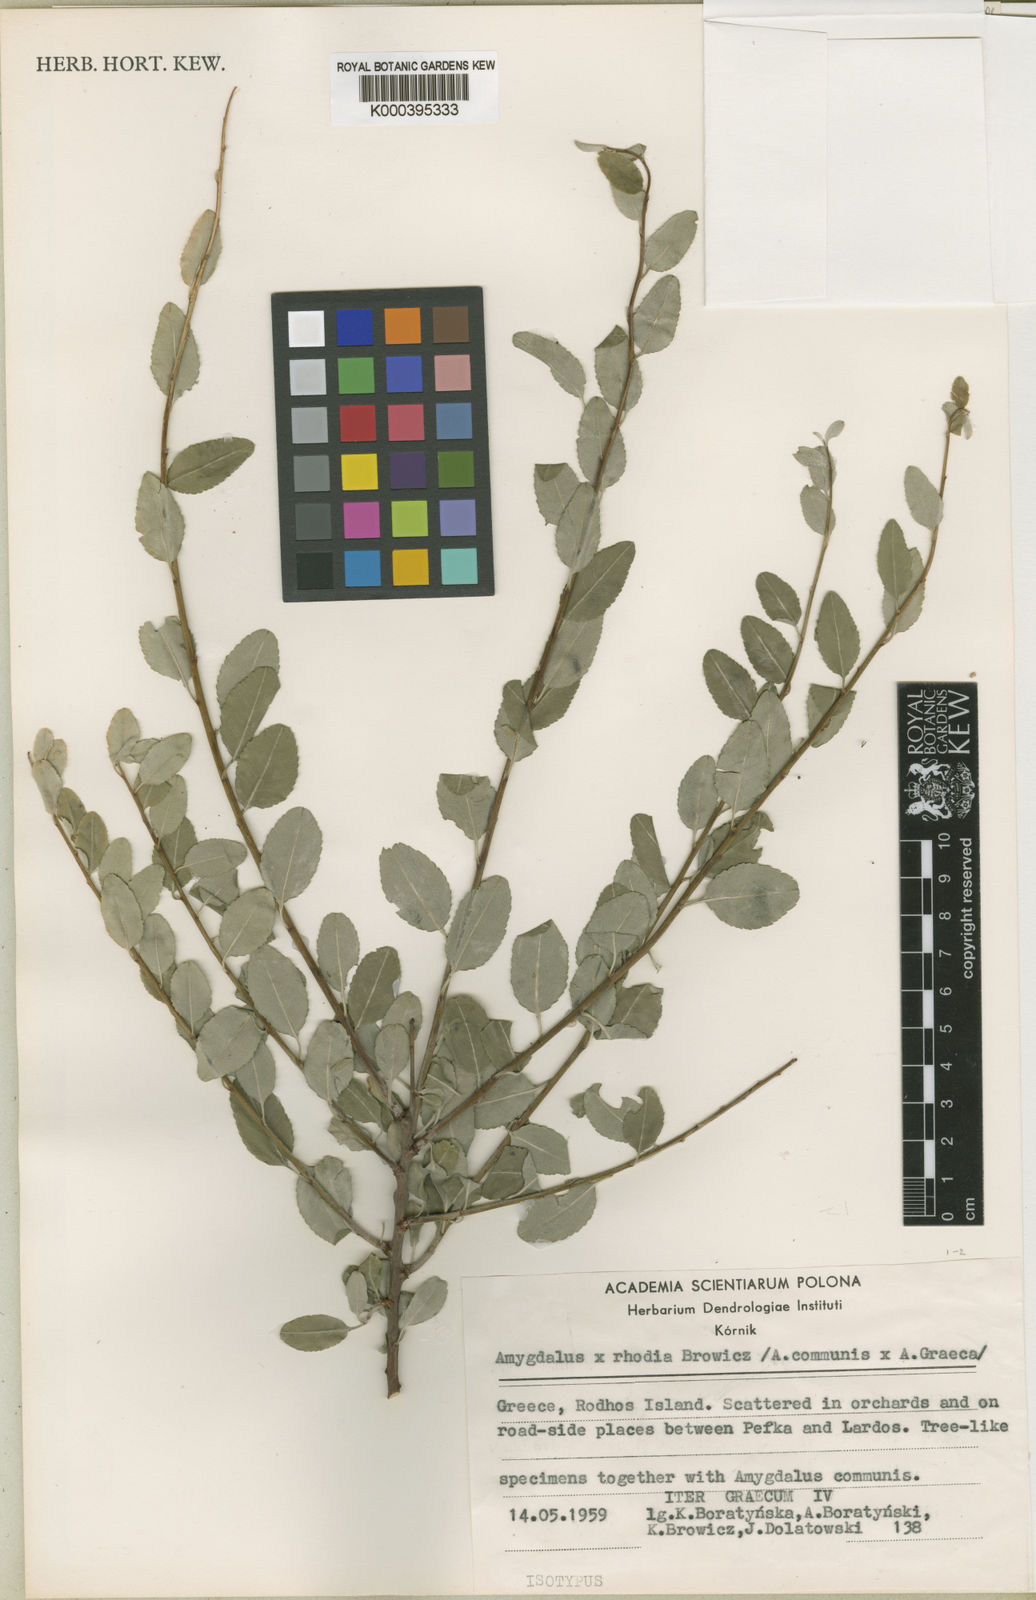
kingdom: Plantae
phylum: Tracheophyta
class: Magnoliopsida
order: Rosales
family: Rosaceae
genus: Prunus
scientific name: Prunus
